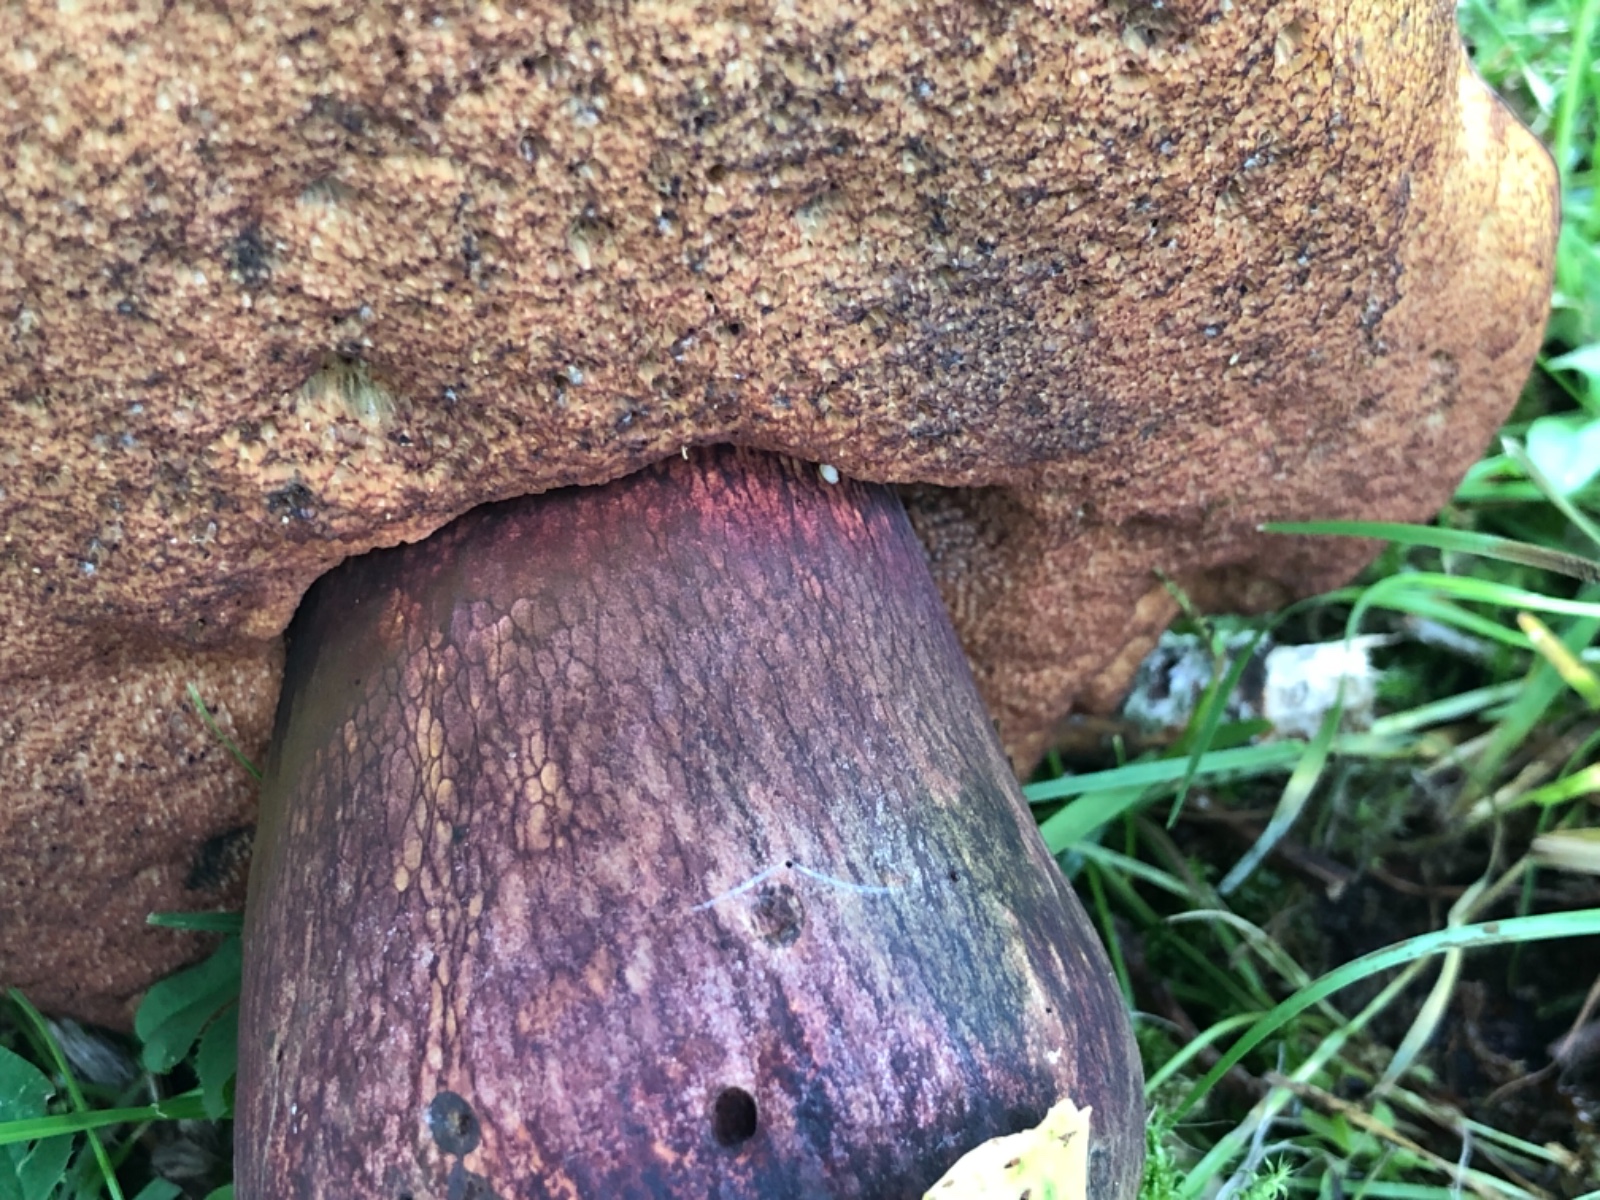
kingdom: Fungi
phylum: Basidiomycota
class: Agaricomycetes
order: Boletales
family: Boletaceae
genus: Suillellus
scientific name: Suillellus luridus
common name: netstokket indigorørhat
